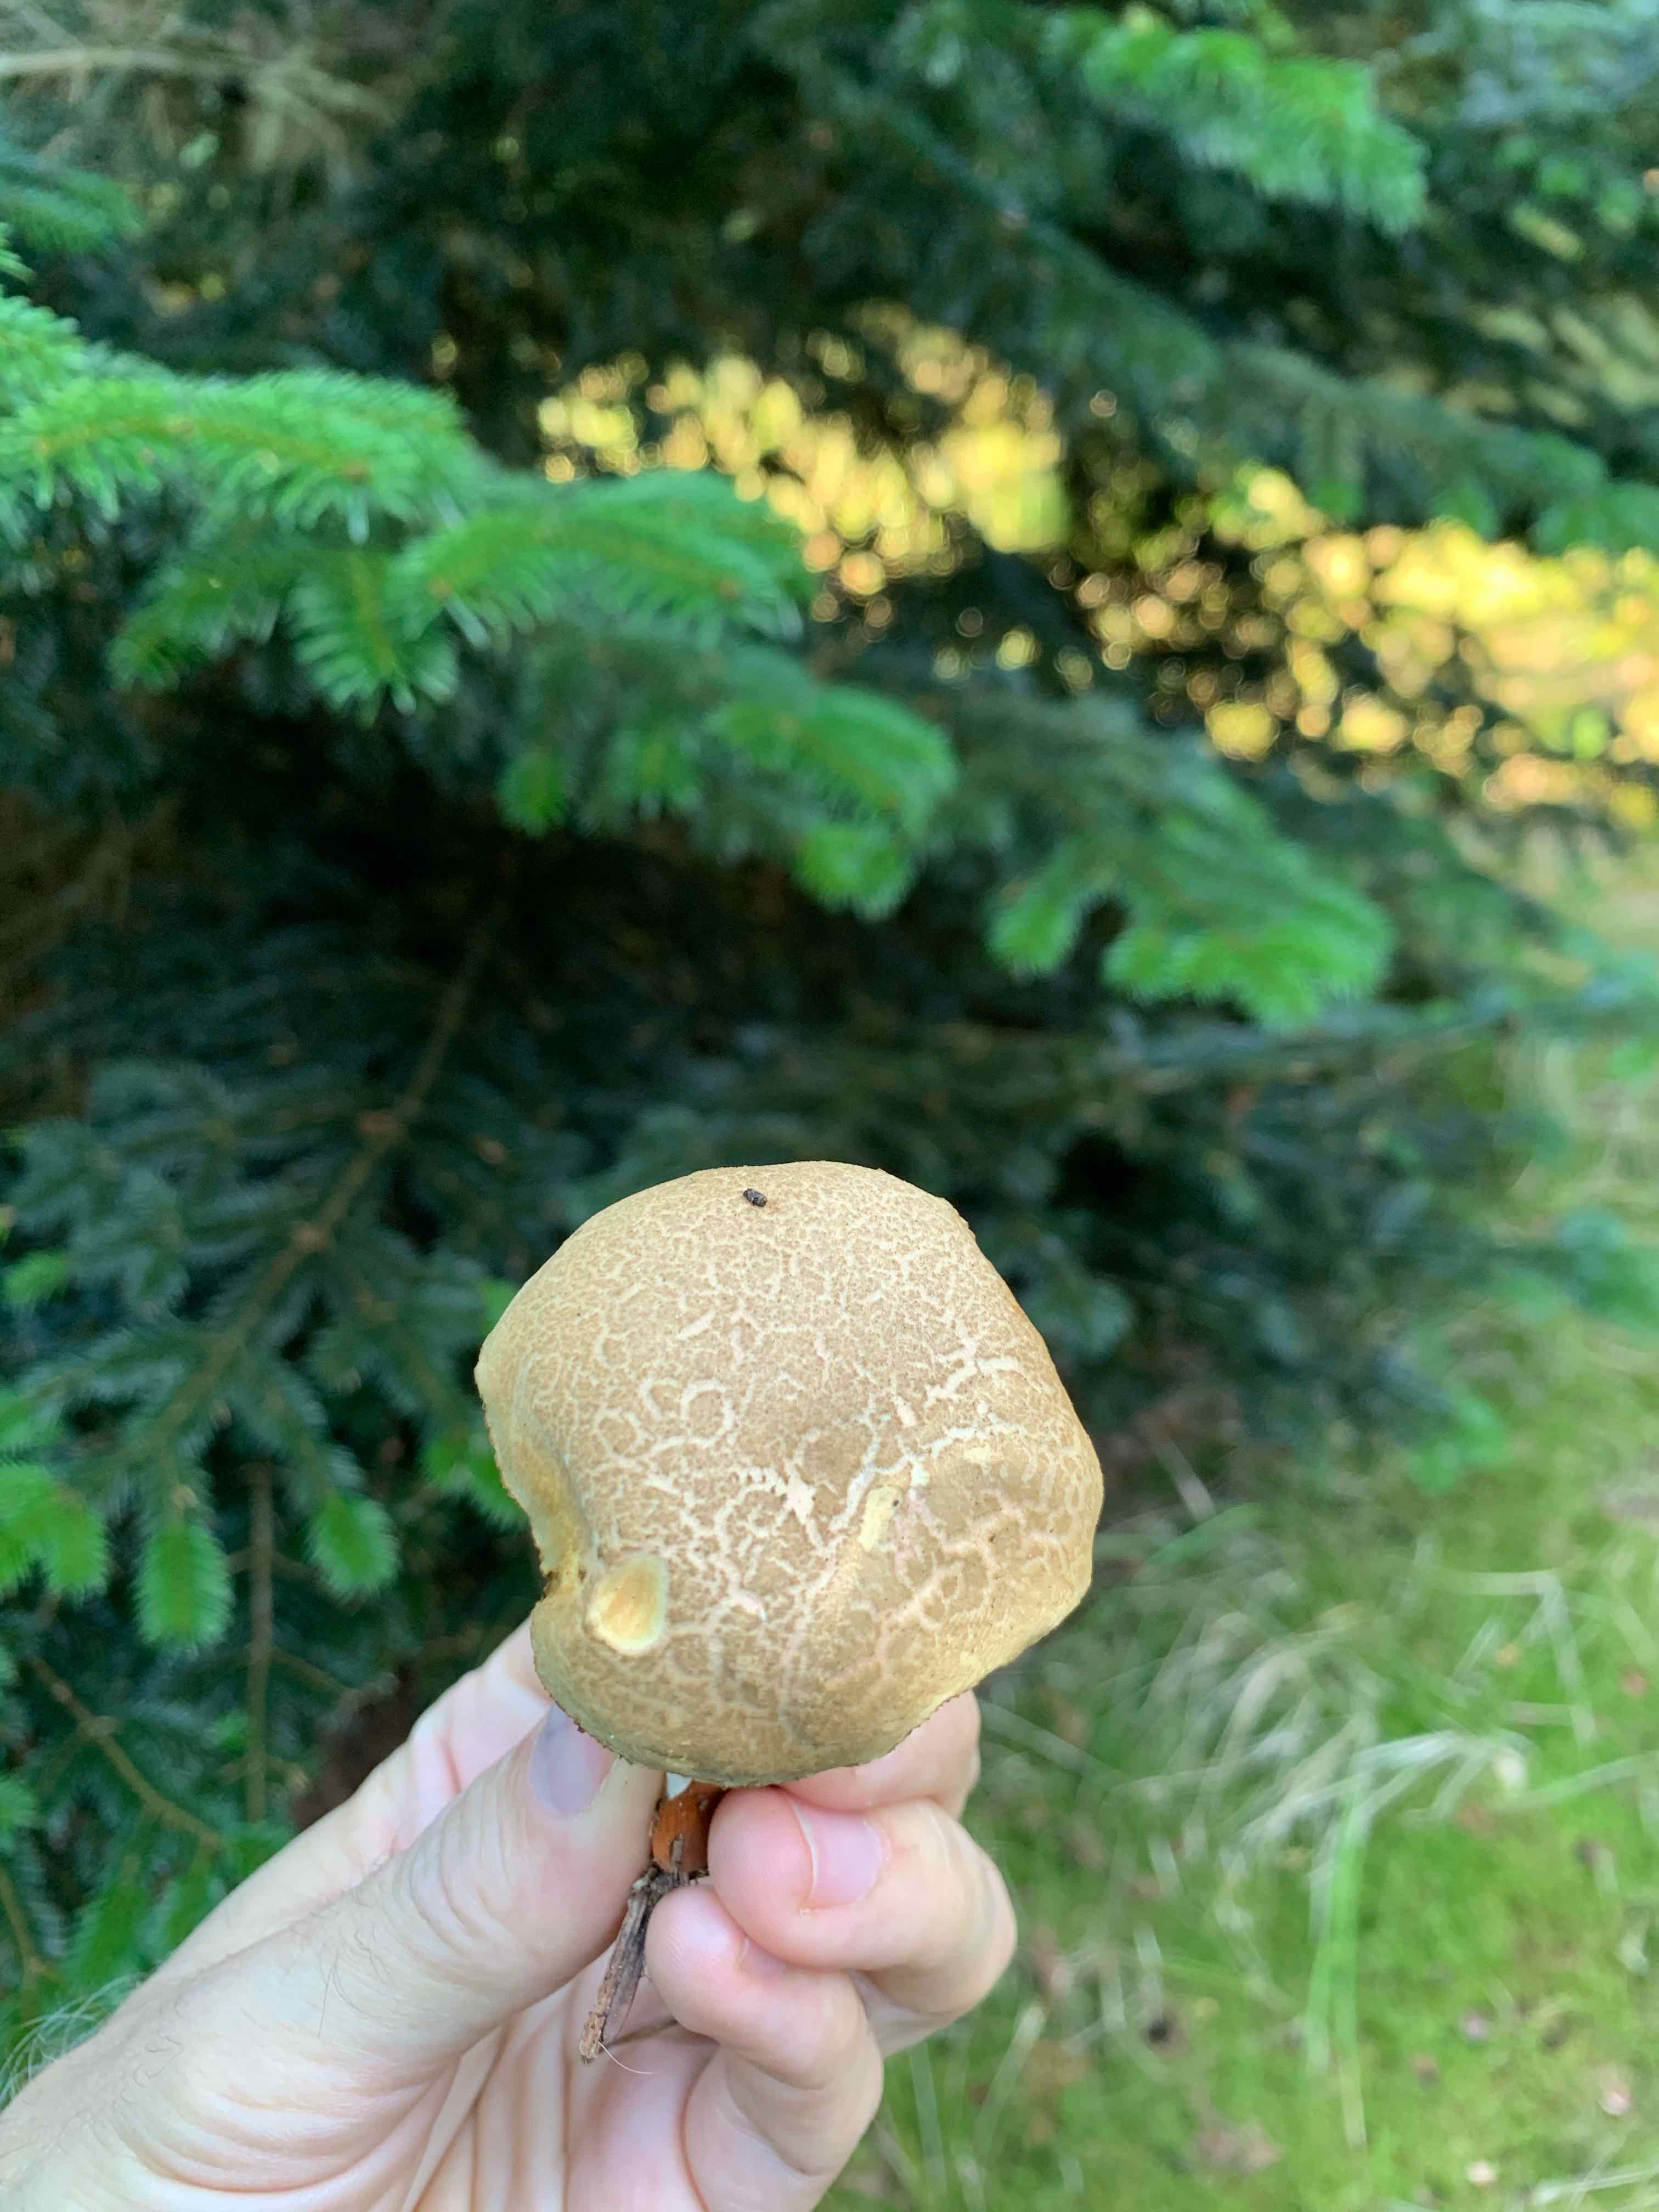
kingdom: Fungi
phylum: Basidiomycota
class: Agaricomycetes
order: Boletales
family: Boletaceae
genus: Xerocomellus
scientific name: Xerocomellus
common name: dværgrørhat
